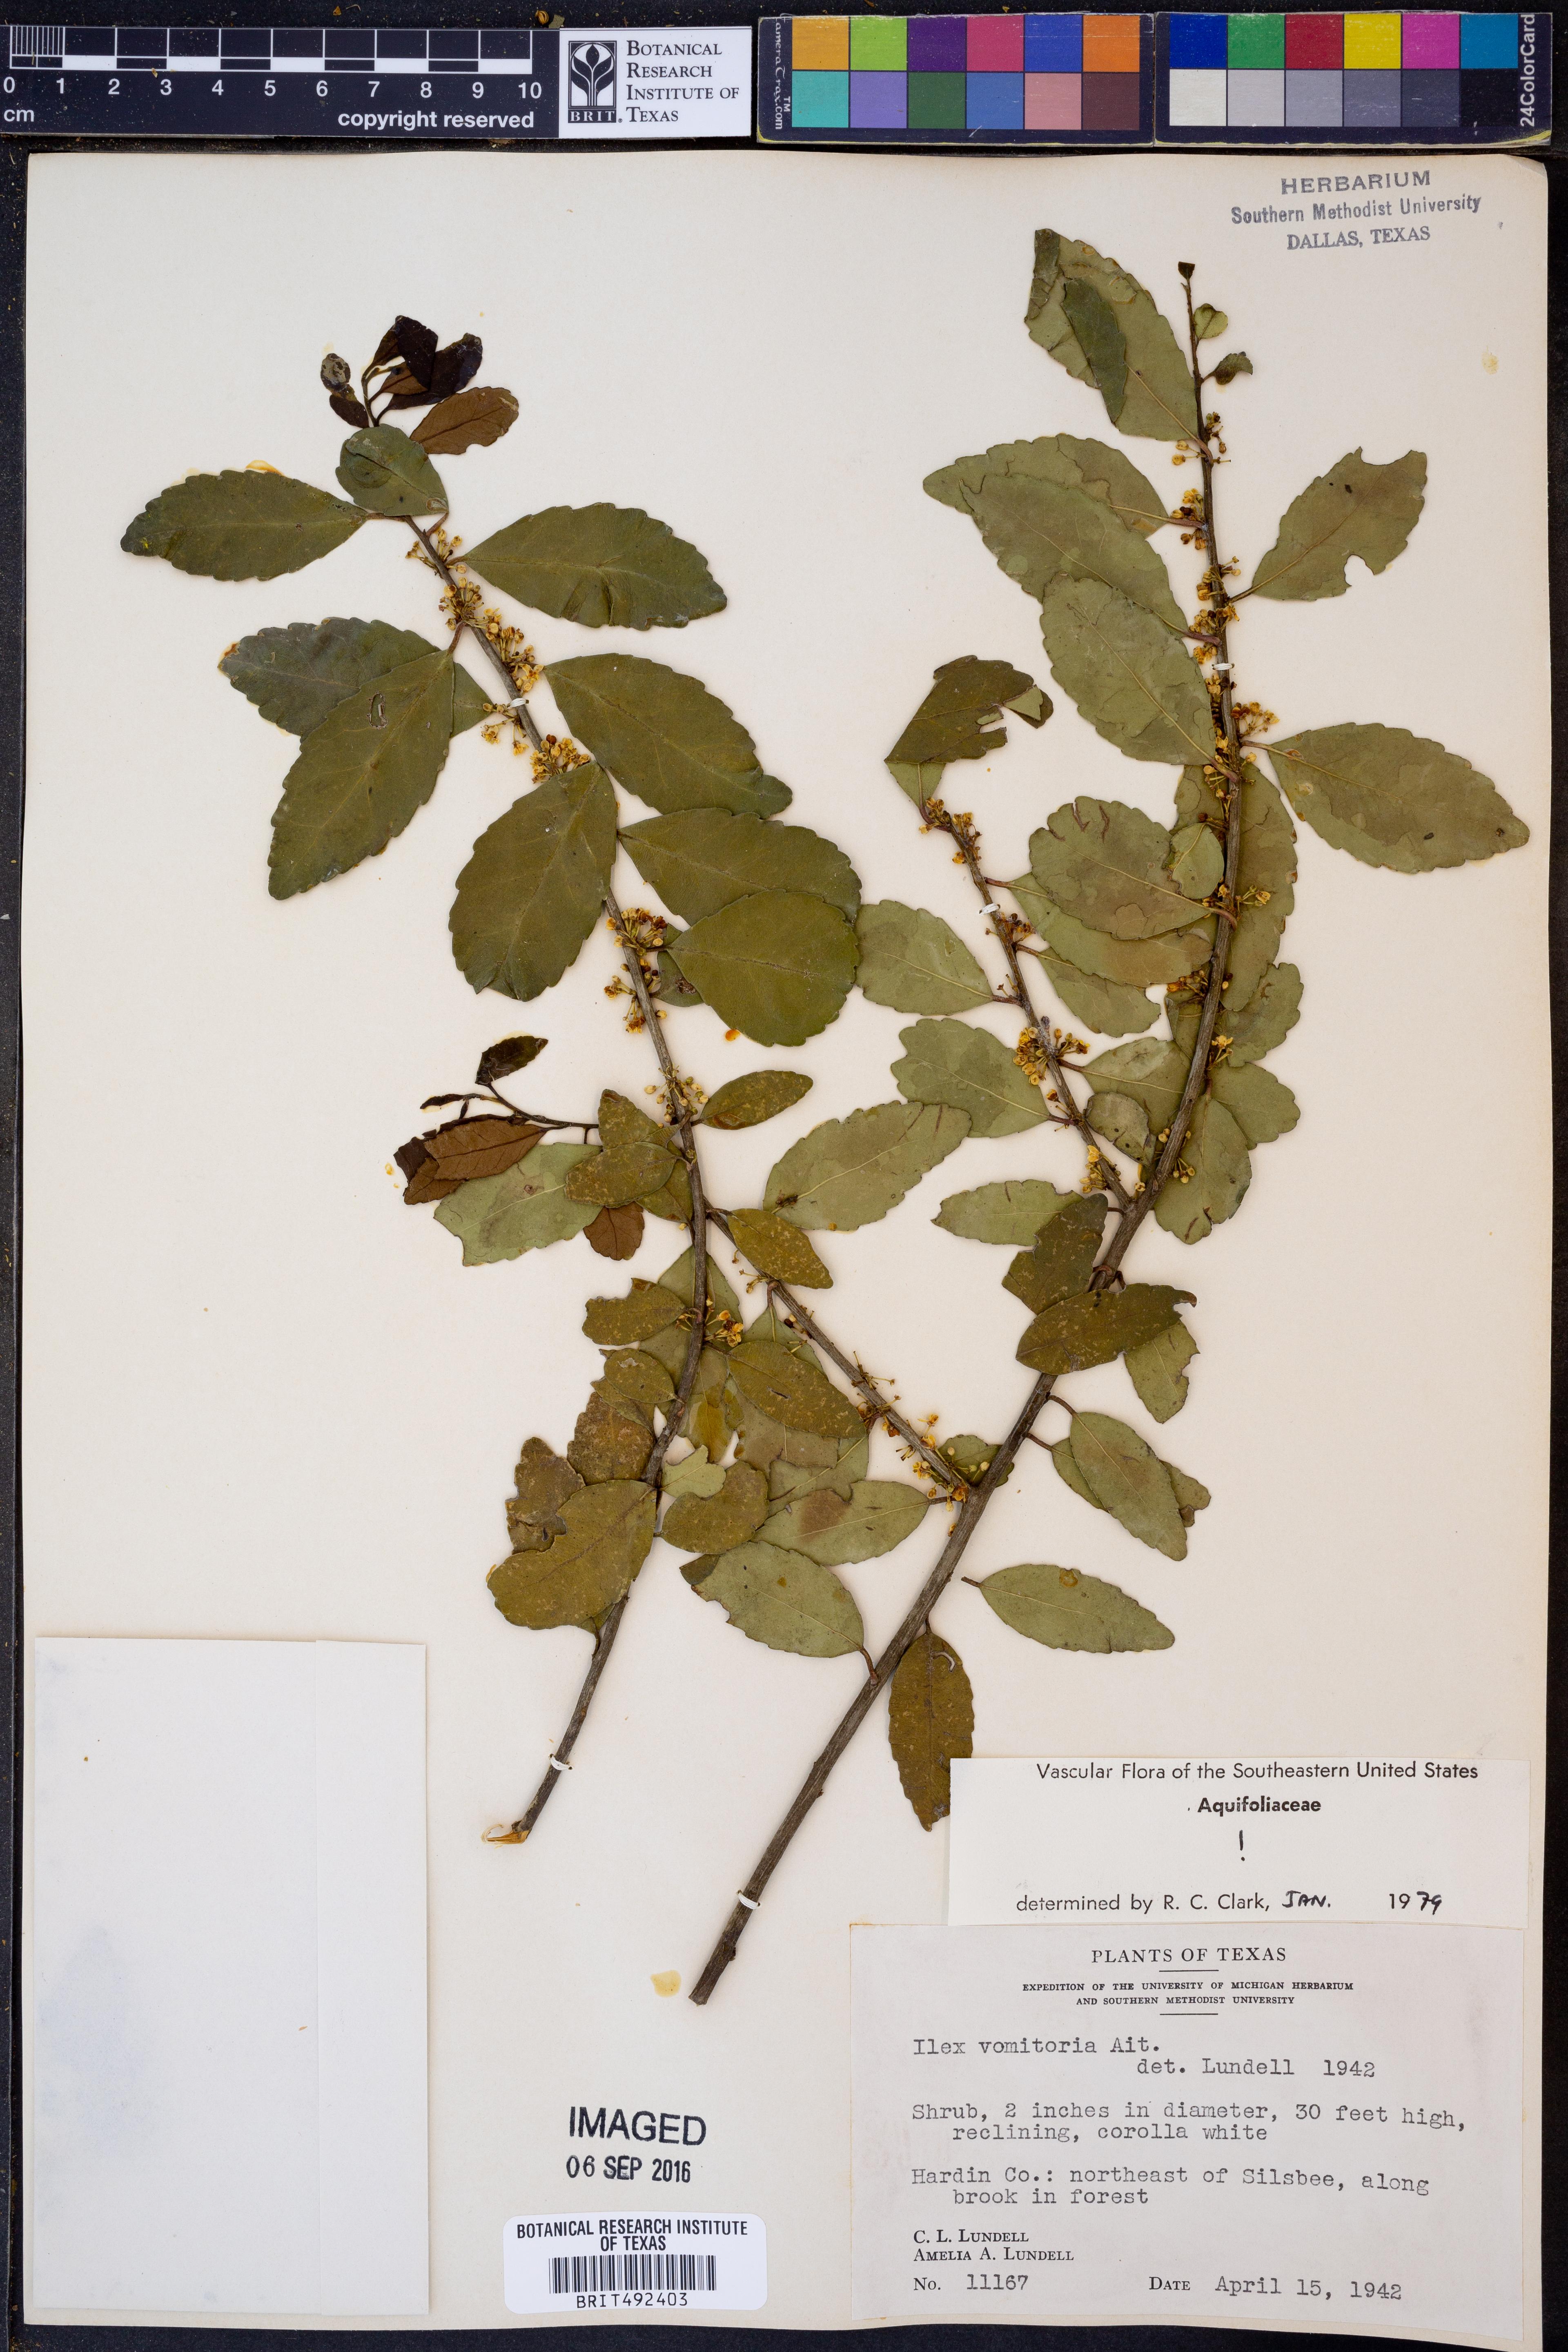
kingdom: Plantae
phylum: Tracheophyta
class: Magnoliopsida
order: Aquifoliales
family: Aquifoliaceae
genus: Ilex
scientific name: Ilex vomitoria
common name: Yaupon holly
